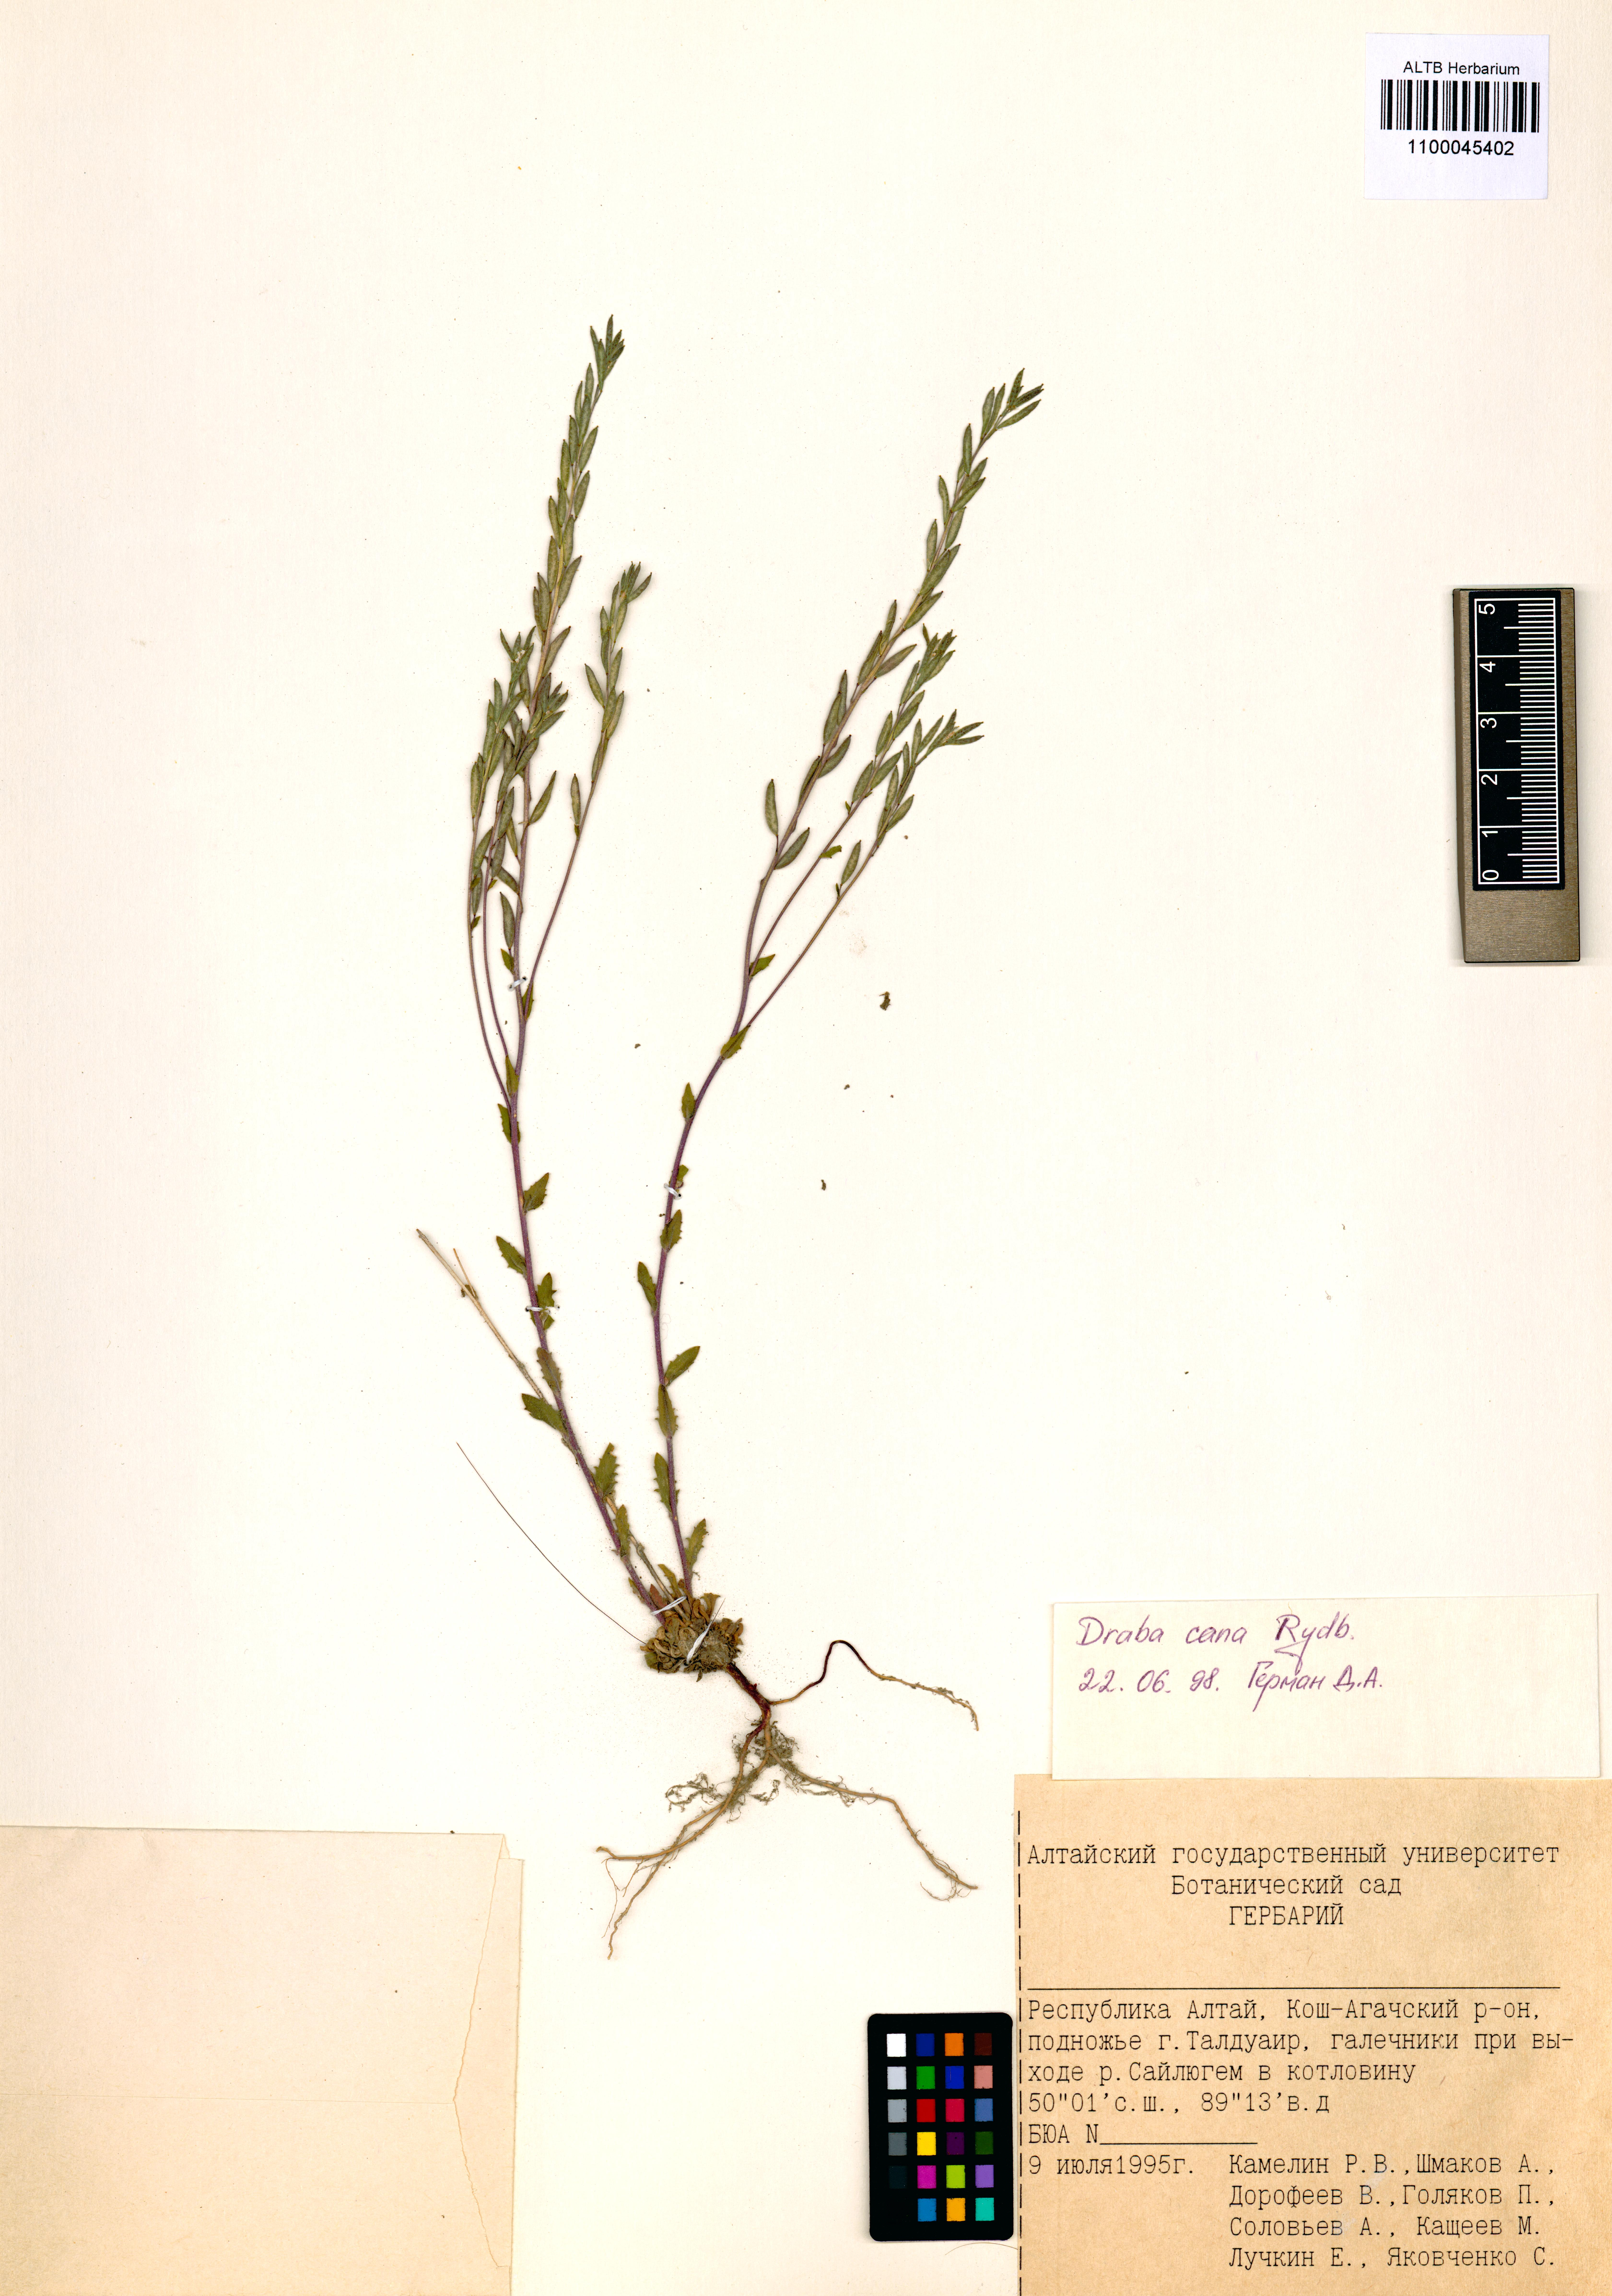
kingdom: Plantae
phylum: Tracheophyta
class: Magnoliopsida
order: Brassicales
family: Brassicaceae
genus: Draba
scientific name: Draba cana
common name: Hoary draba
